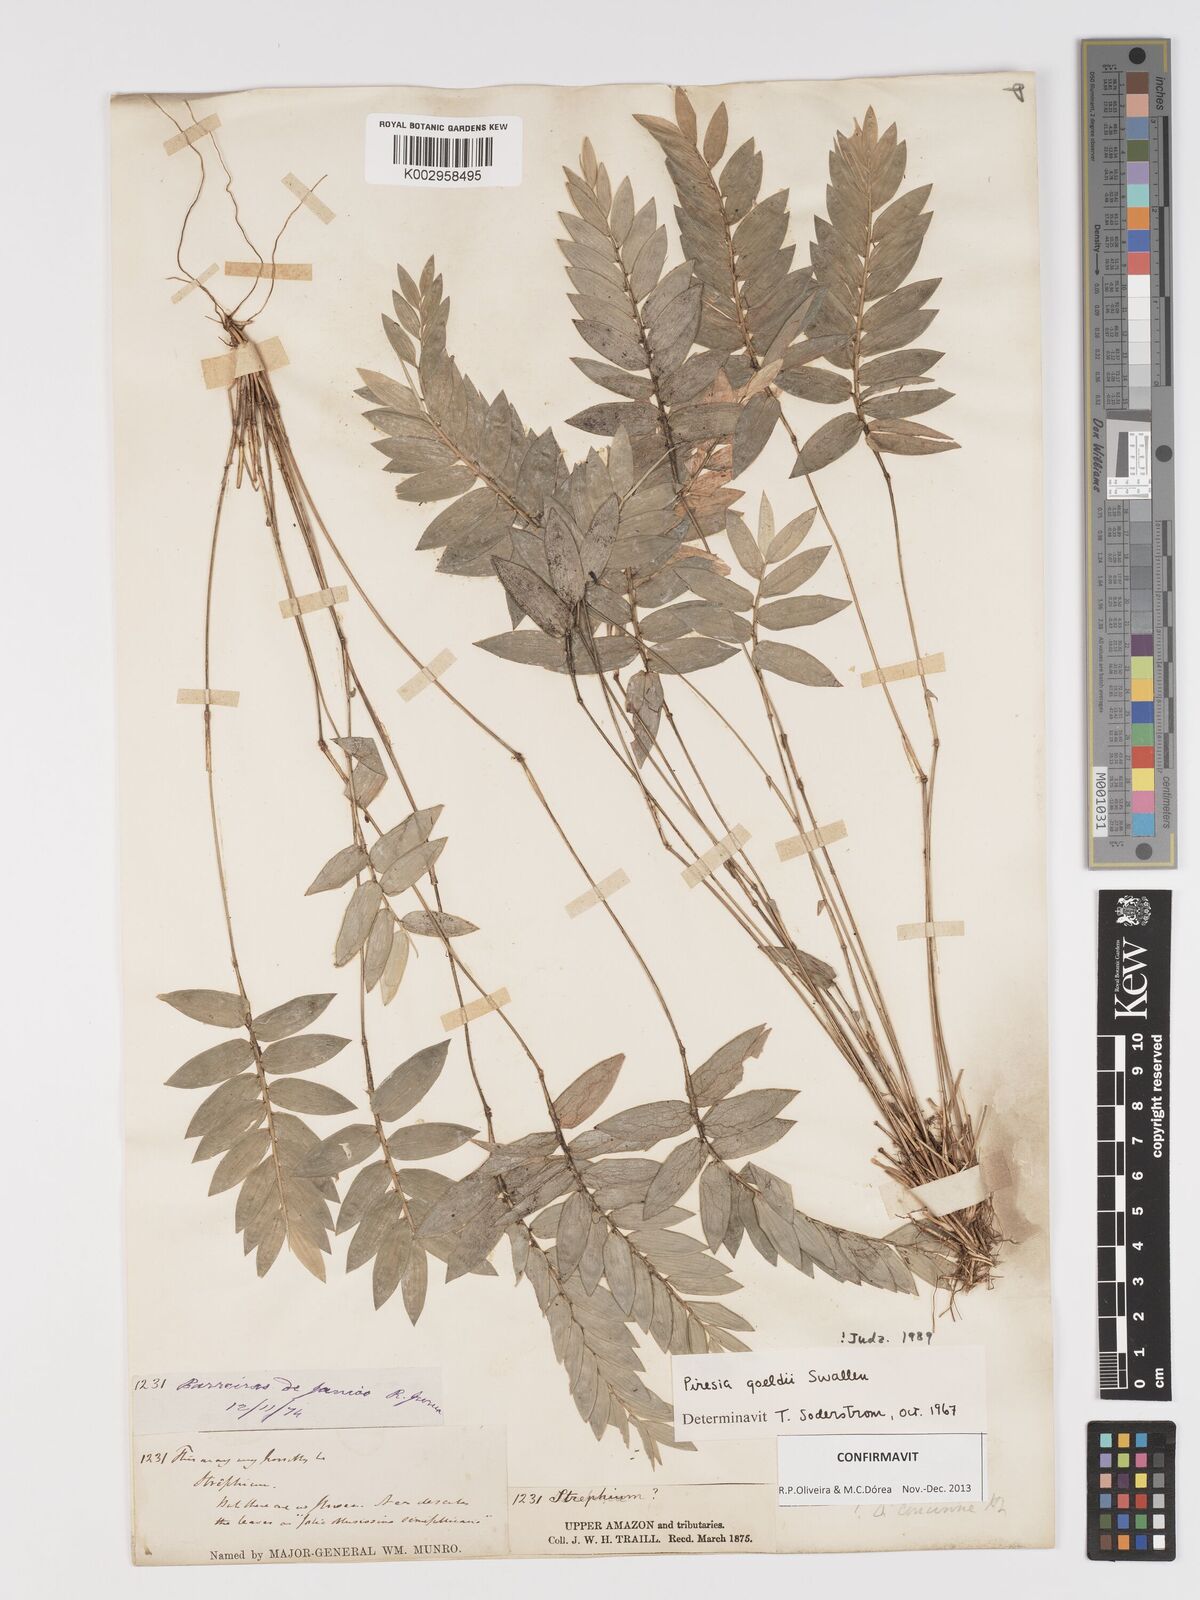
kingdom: Plantae
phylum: Tracheophyta
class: Liliopsida
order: Poales
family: Poaceae
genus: Piresia
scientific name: Piresia goeldii
